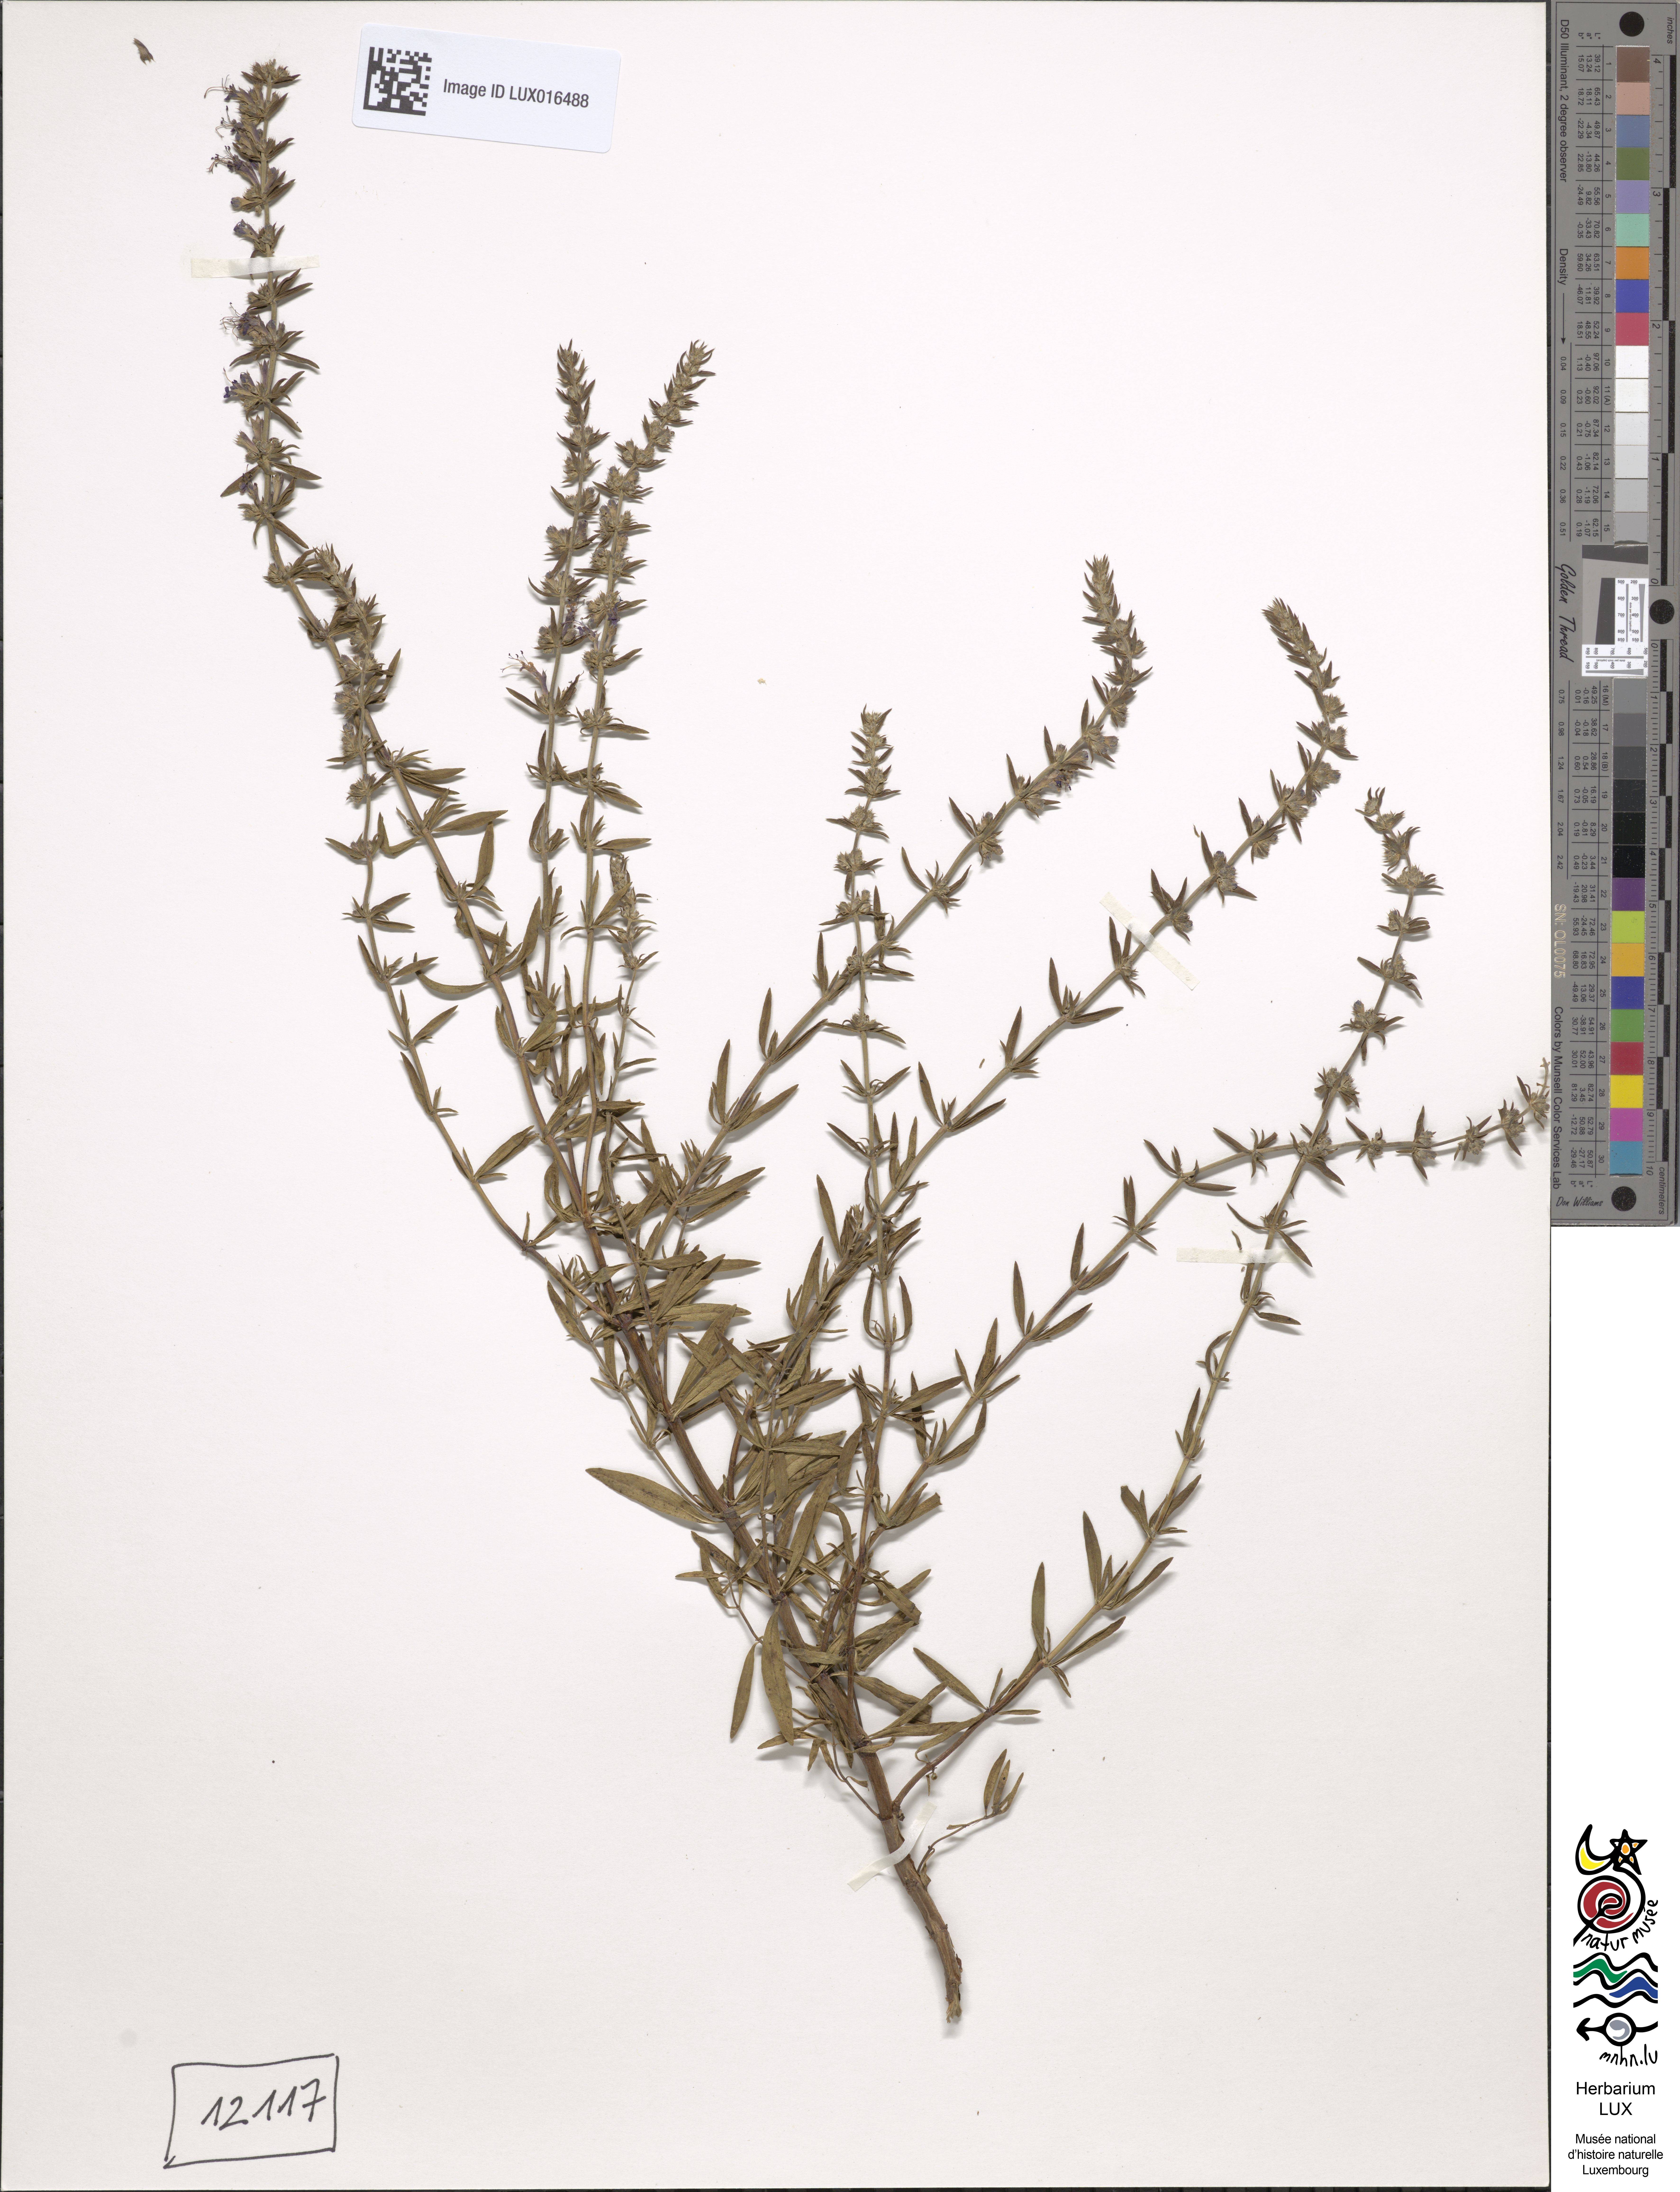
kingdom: Plantae
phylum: Tracheophyta
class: Magnoliopsida
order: Lamiales
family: Lamiaceae
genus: Hyssopus
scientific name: Hyssopus officinalis
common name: Hyssop
